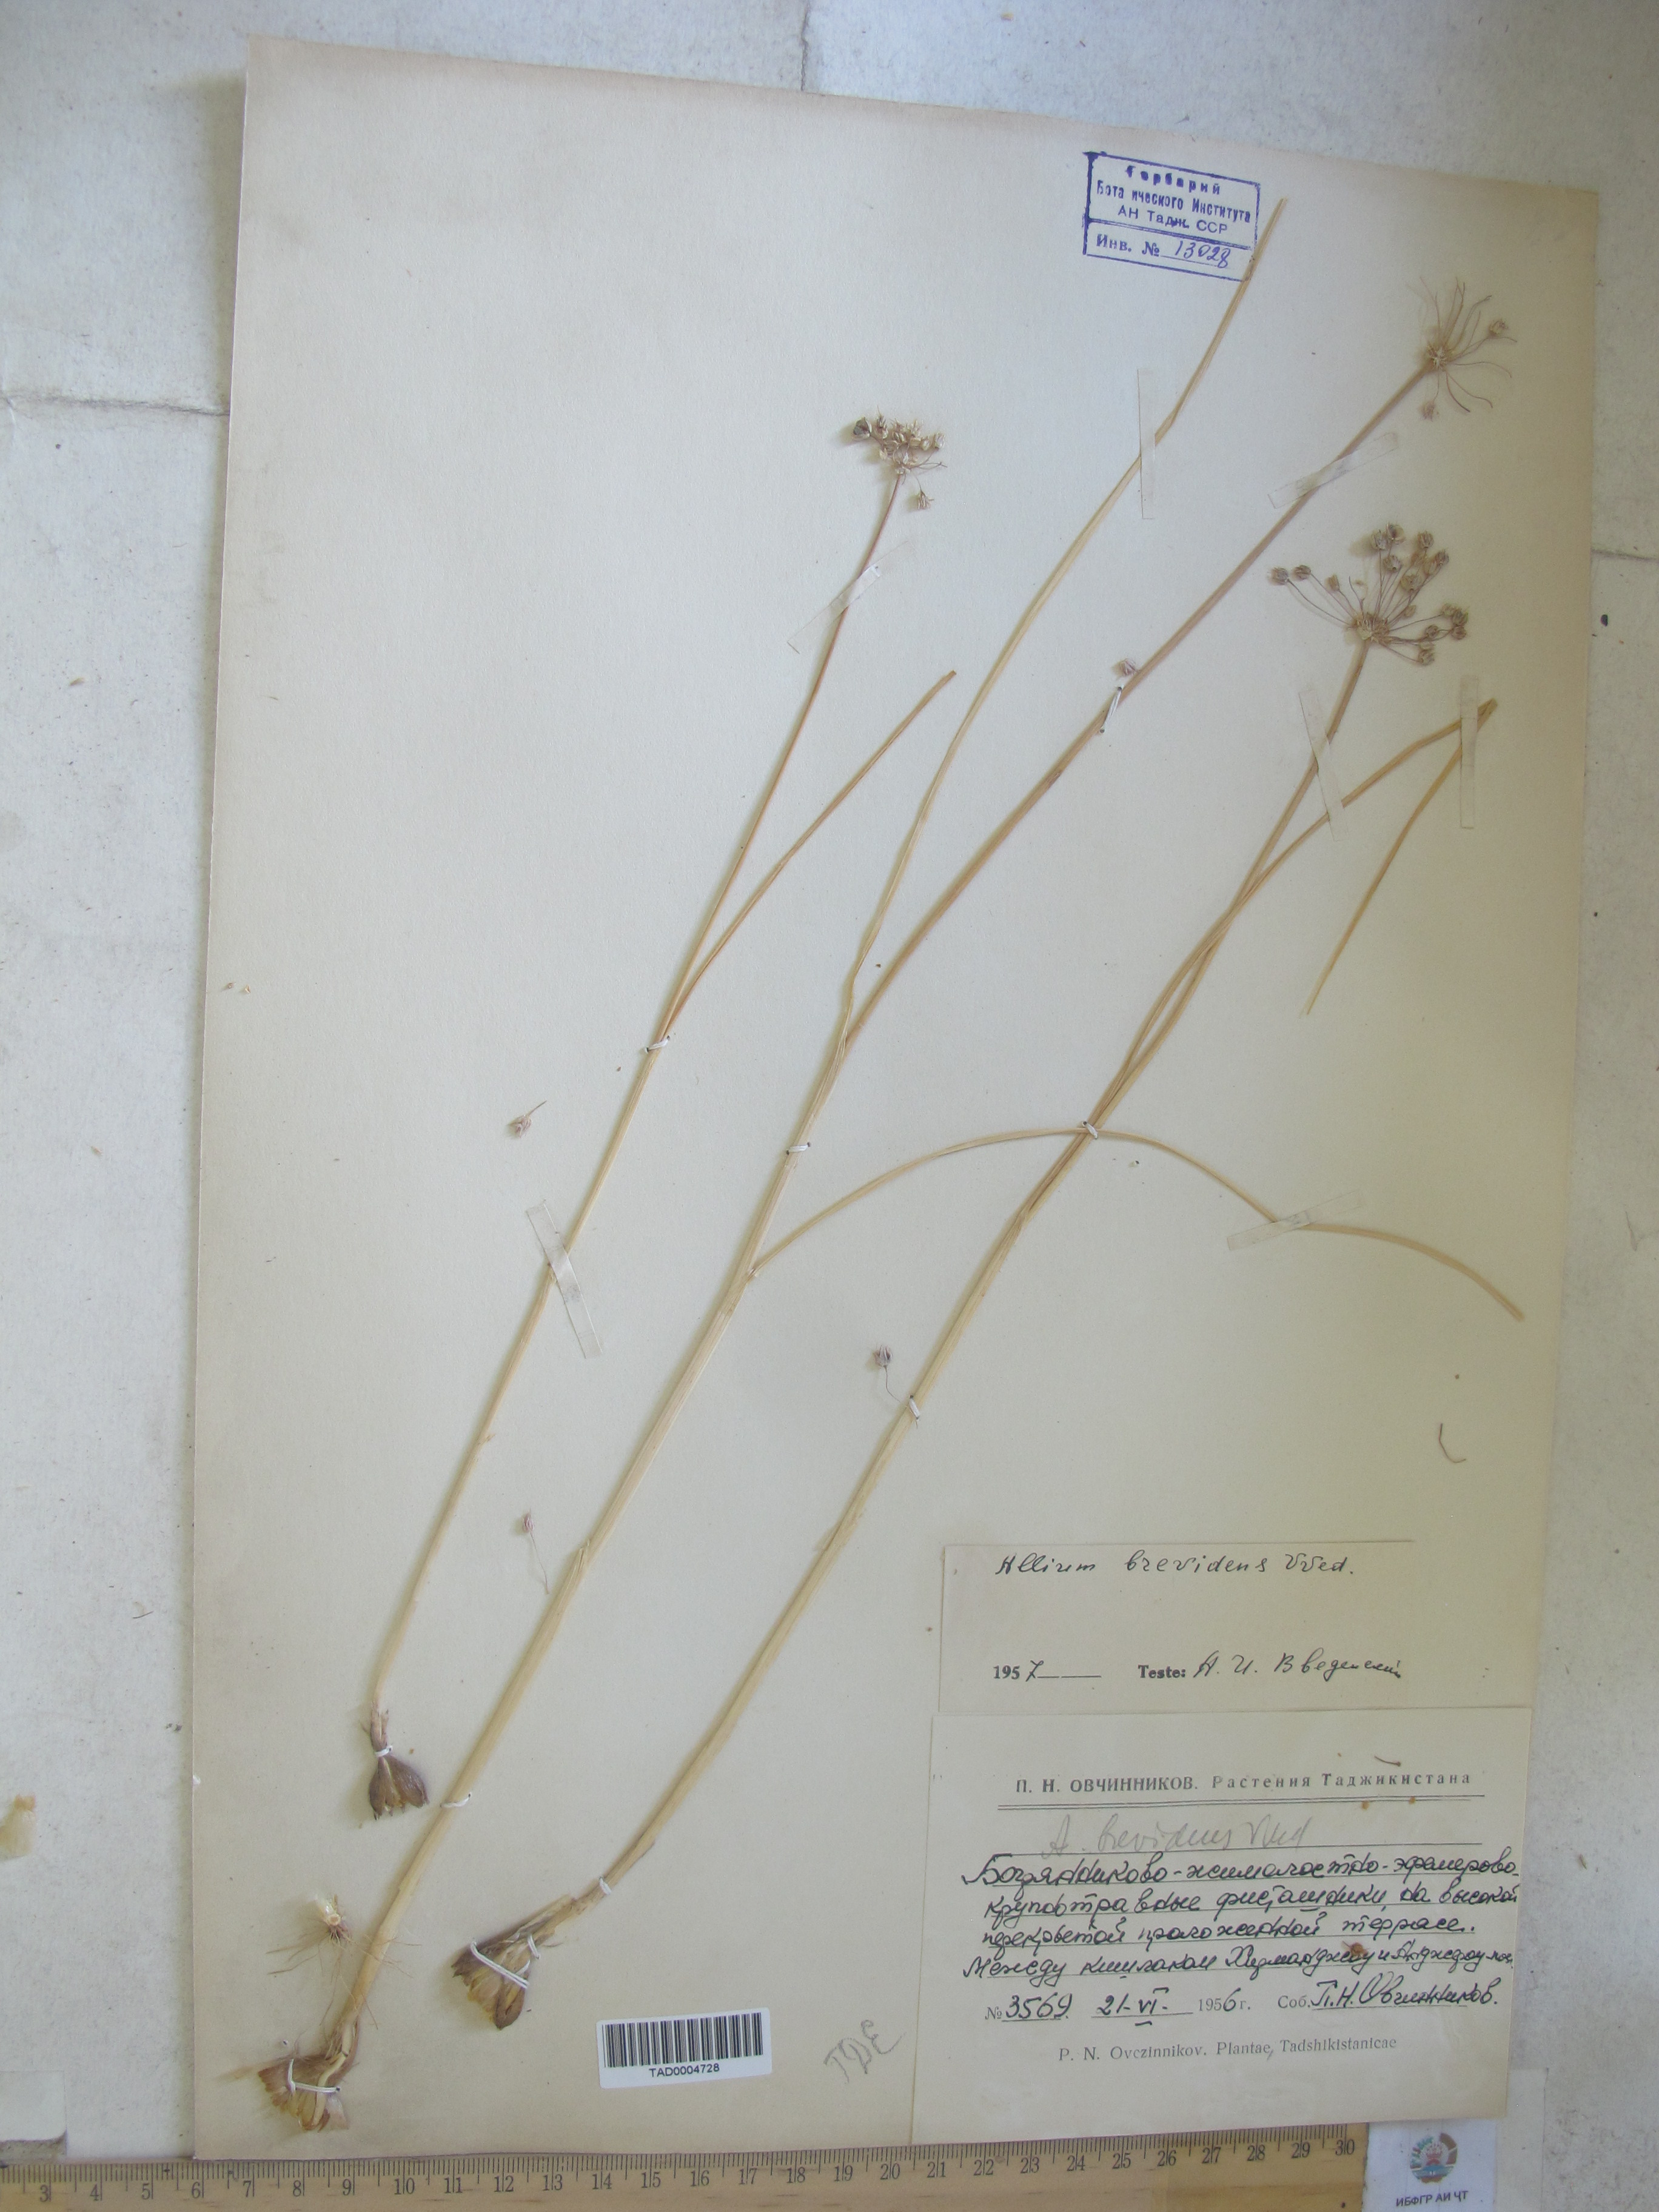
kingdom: Plantae
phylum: Tracheophyta
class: Liliopsida
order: Asparagales
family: Amaryllidaceae
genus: Allium
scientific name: Allium brevidens
